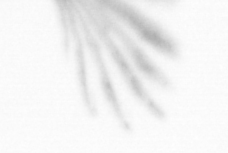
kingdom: Animalia
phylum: Arthropoda
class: Copepoda
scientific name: Copepoda
